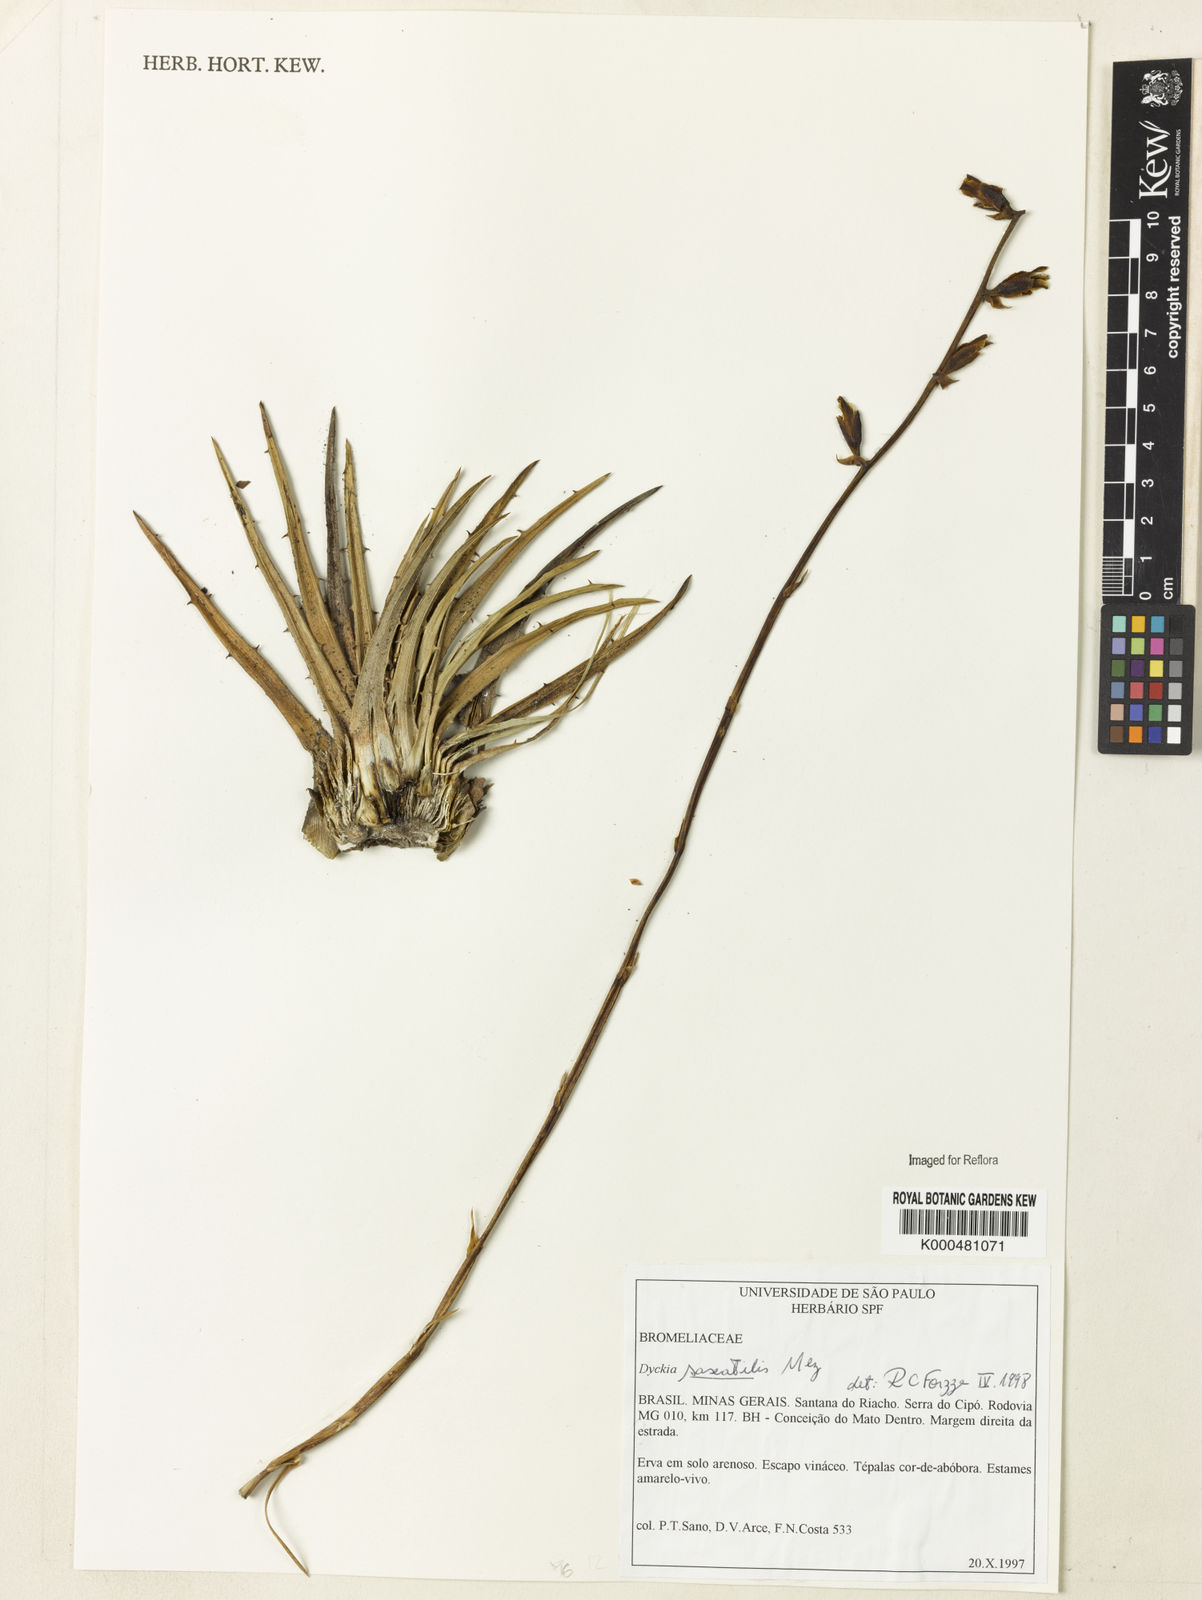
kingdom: Plantae
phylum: Tracheophyta
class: Liliopsida
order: Poales
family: Bromeliaceae
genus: Dyckia
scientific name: Dyckia saxatilis
